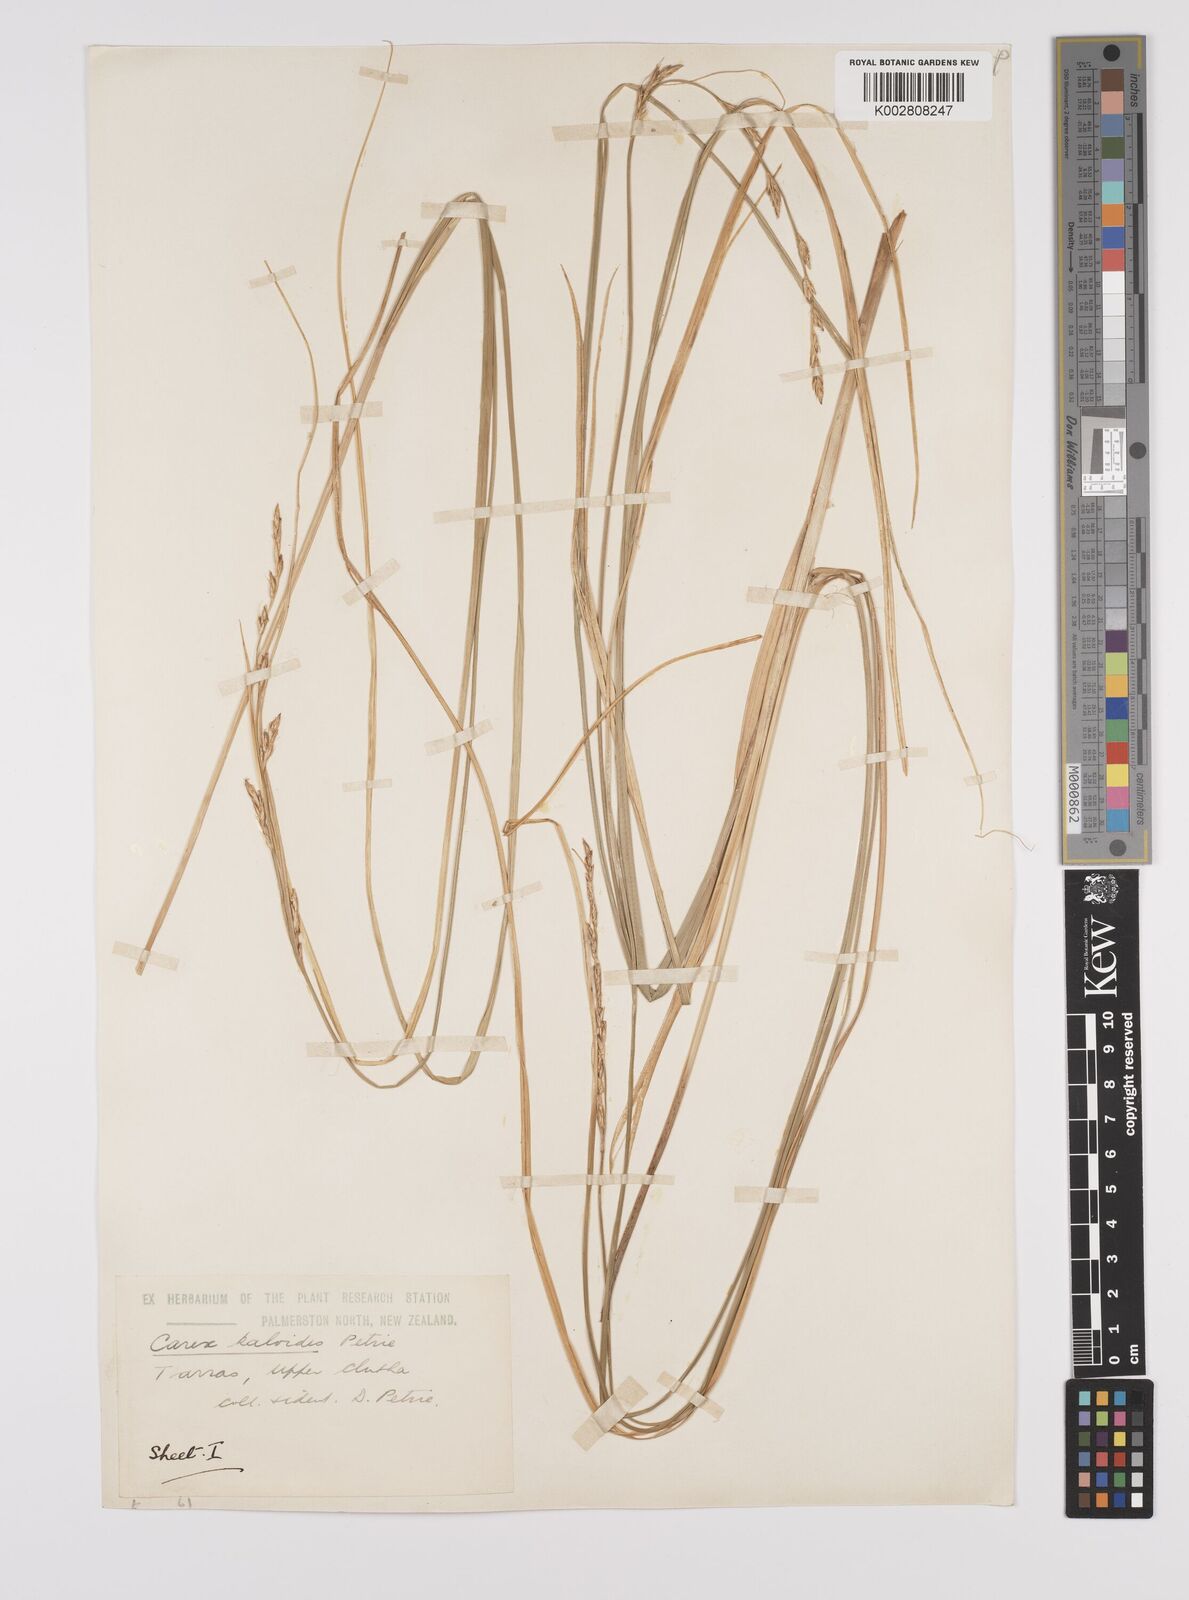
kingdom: Plantae
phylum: Tracheophyta
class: Liliopsida
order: Poales
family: Cyperaceae
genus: Carex
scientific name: Carex kaloides
